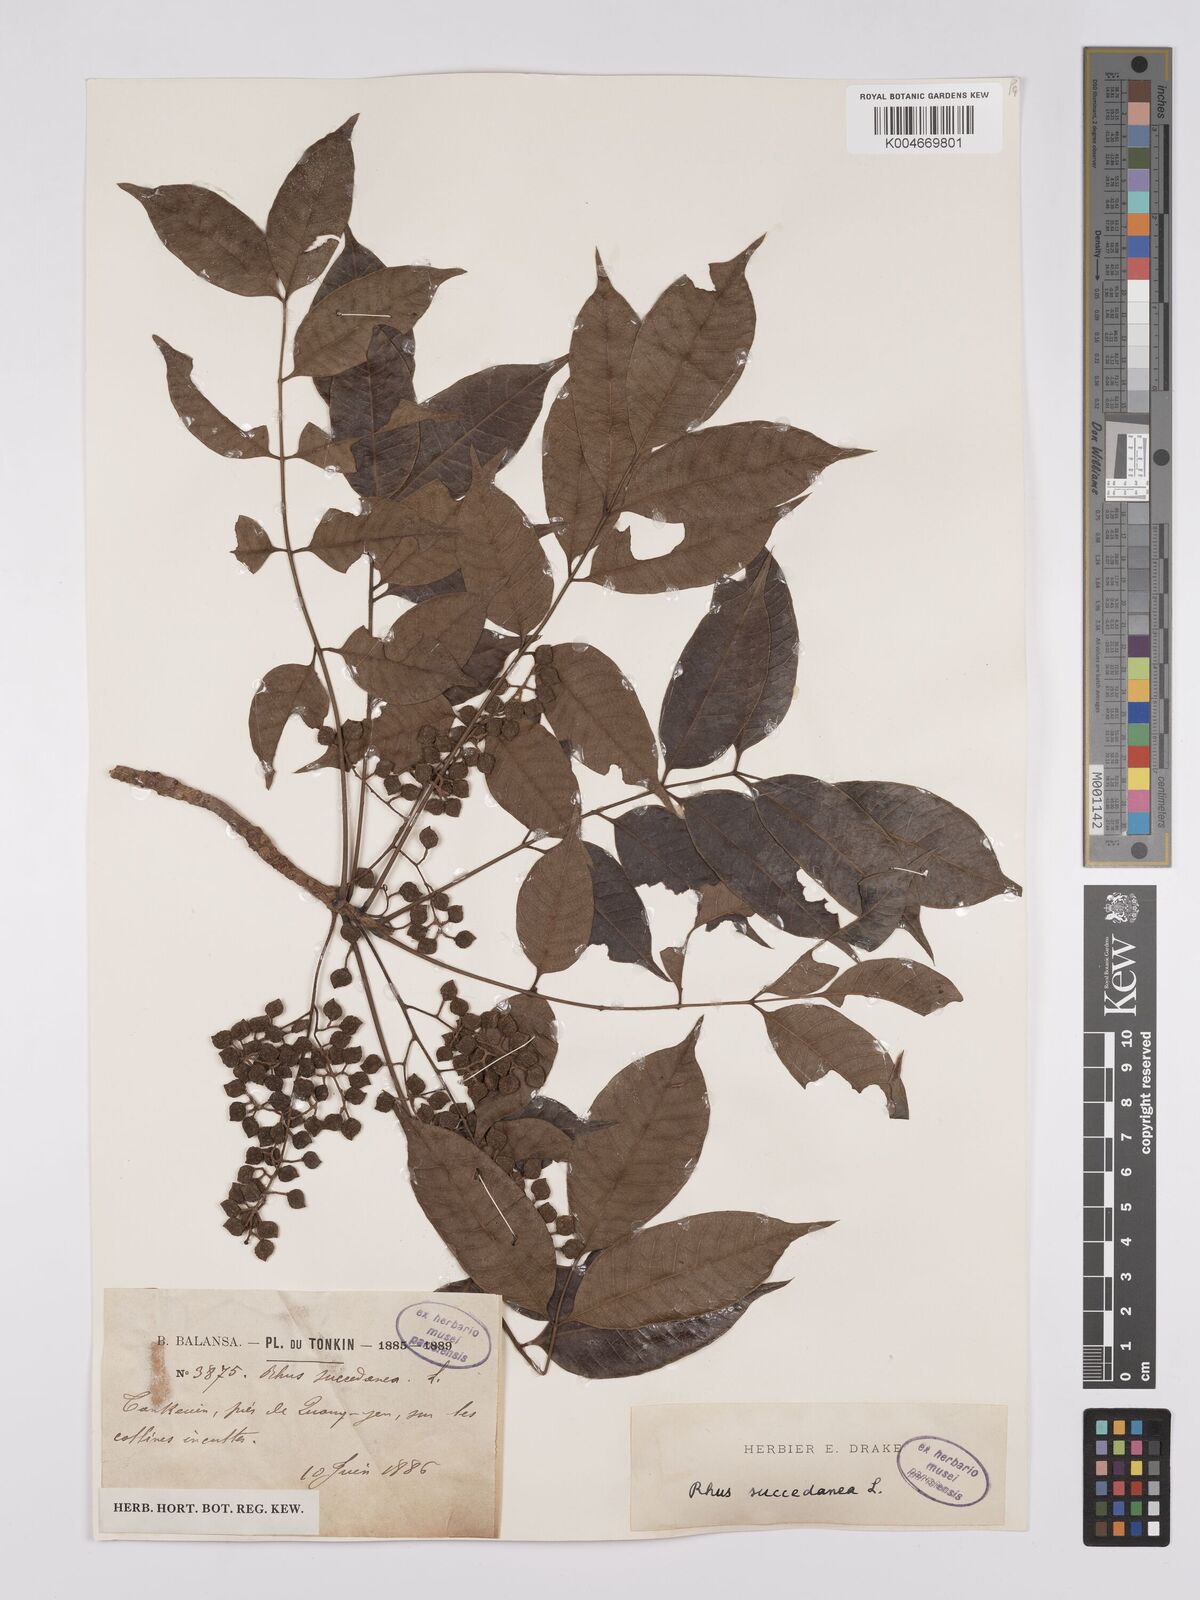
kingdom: Plantae
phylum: Tracheophyta
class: Magnoliopsida
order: Sapindales
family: Anacardiaceae
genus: Toxicodendron
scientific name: Toxicodendron succedaneum
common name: Wax tree
